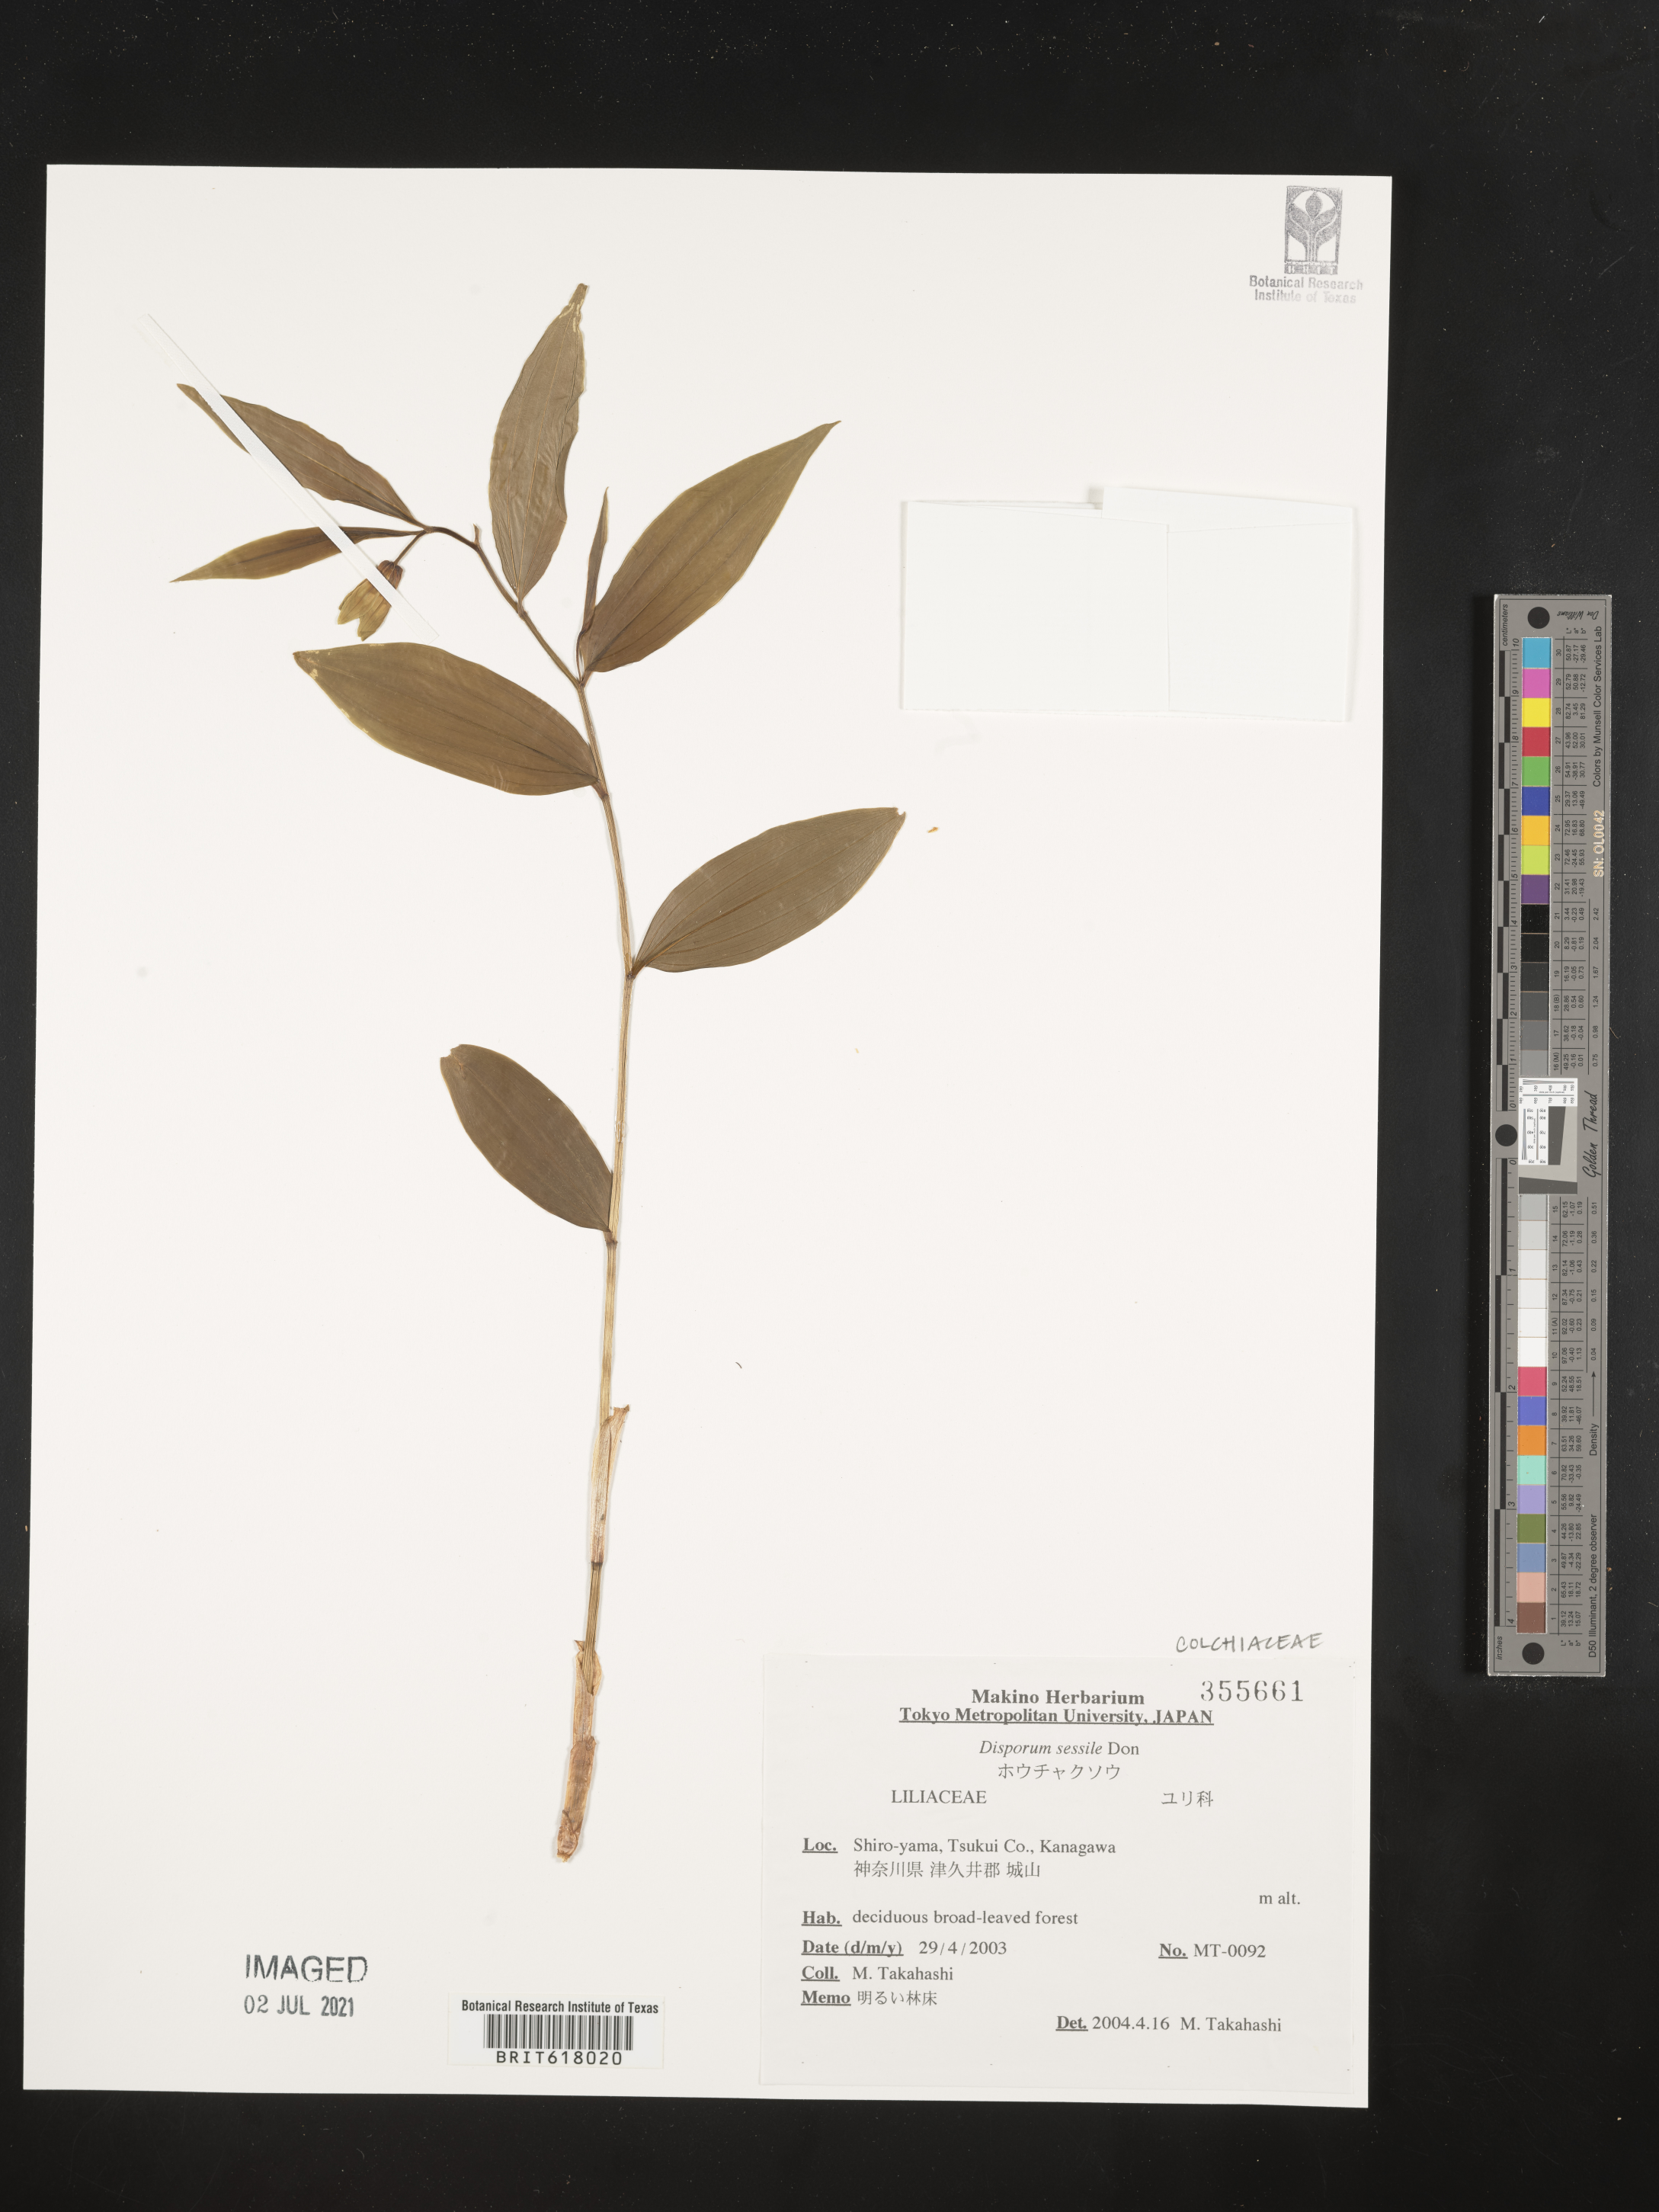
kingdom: Plantae
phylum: Tracheophyta
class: Liliopsida
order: Liliales
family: Colchicaceae
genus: Disporum
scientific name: Disporum sessile
